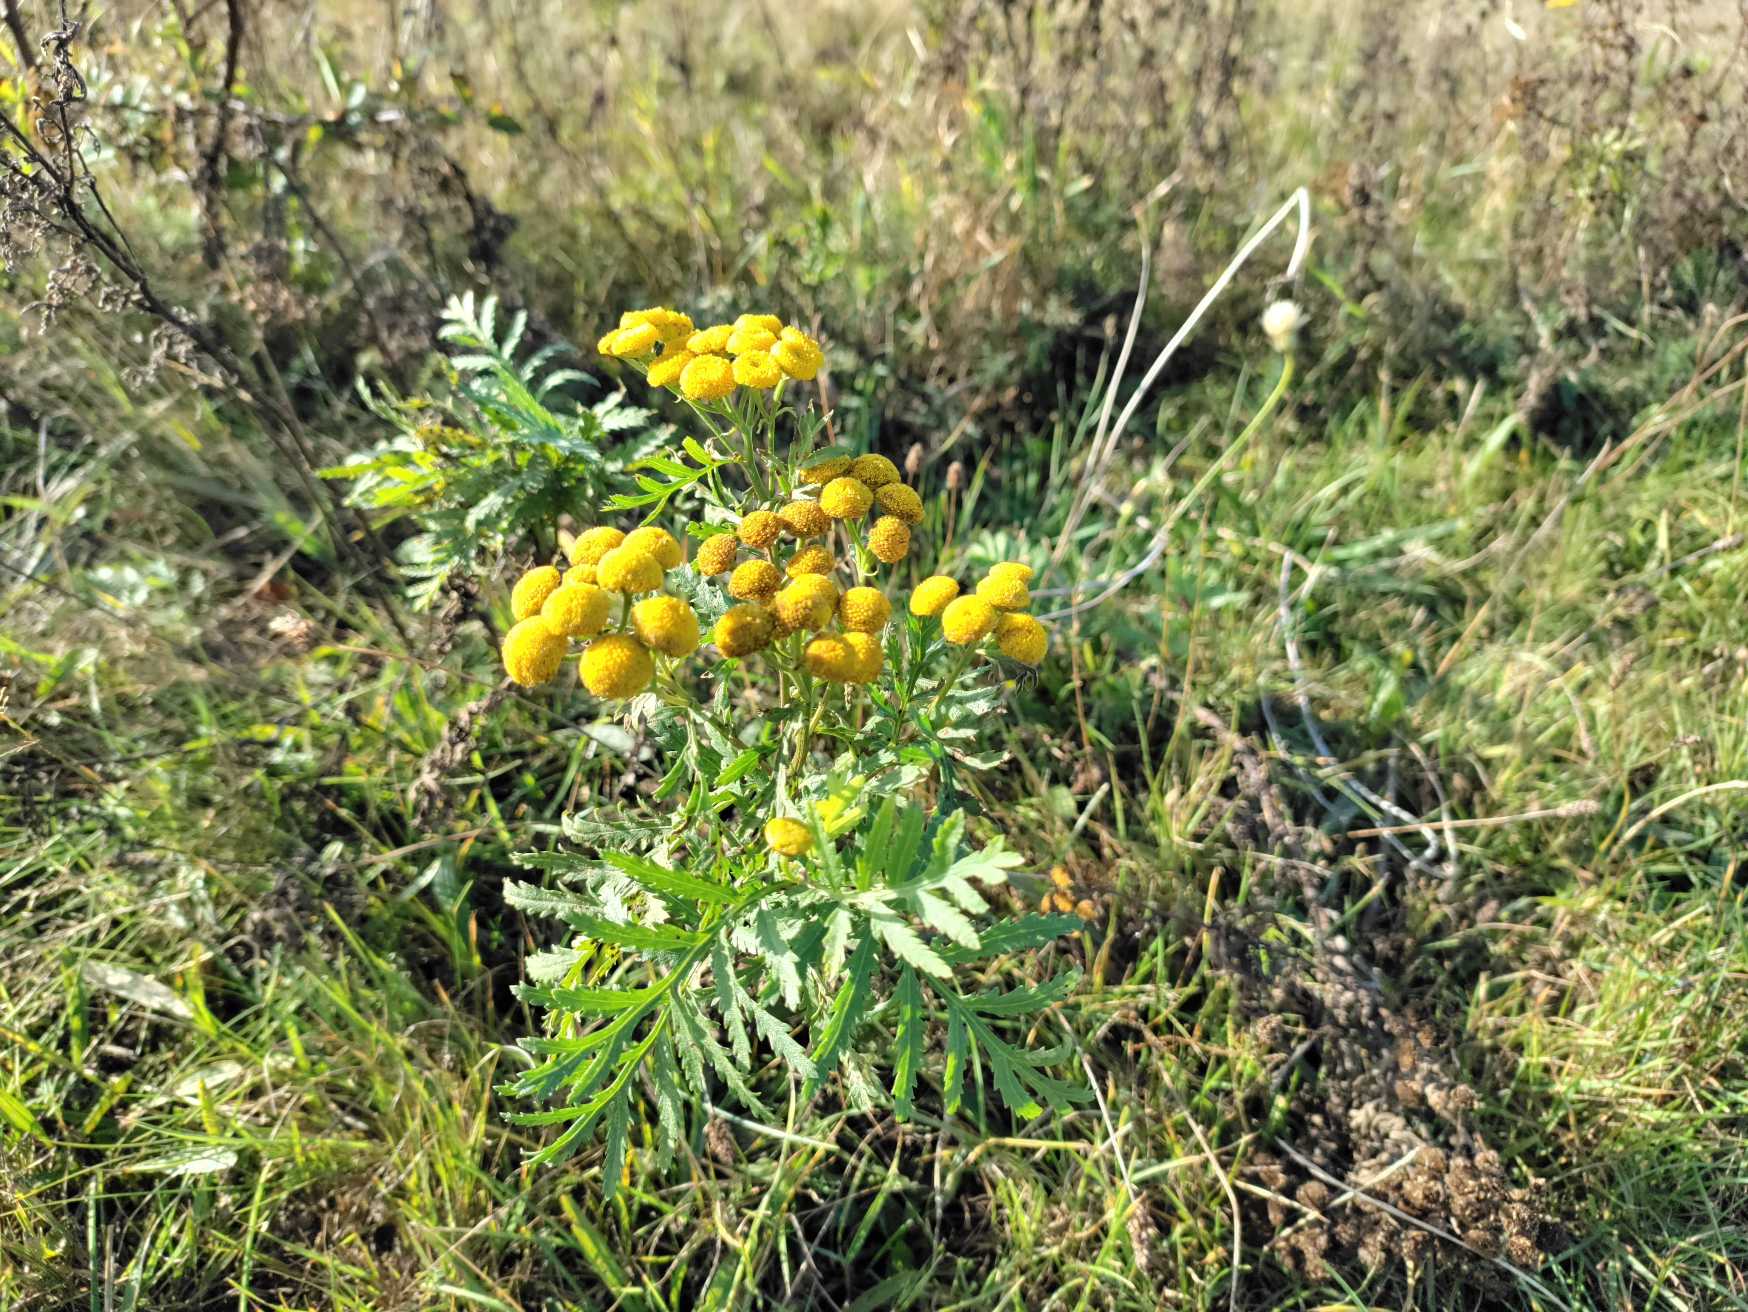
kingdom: Plantae
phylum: Tracheophyta
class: Magnoliopsida
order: Asterales
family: Asteraceae
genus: Tanacetum
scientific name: Tanacetum vulgare
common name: Rejnfan
